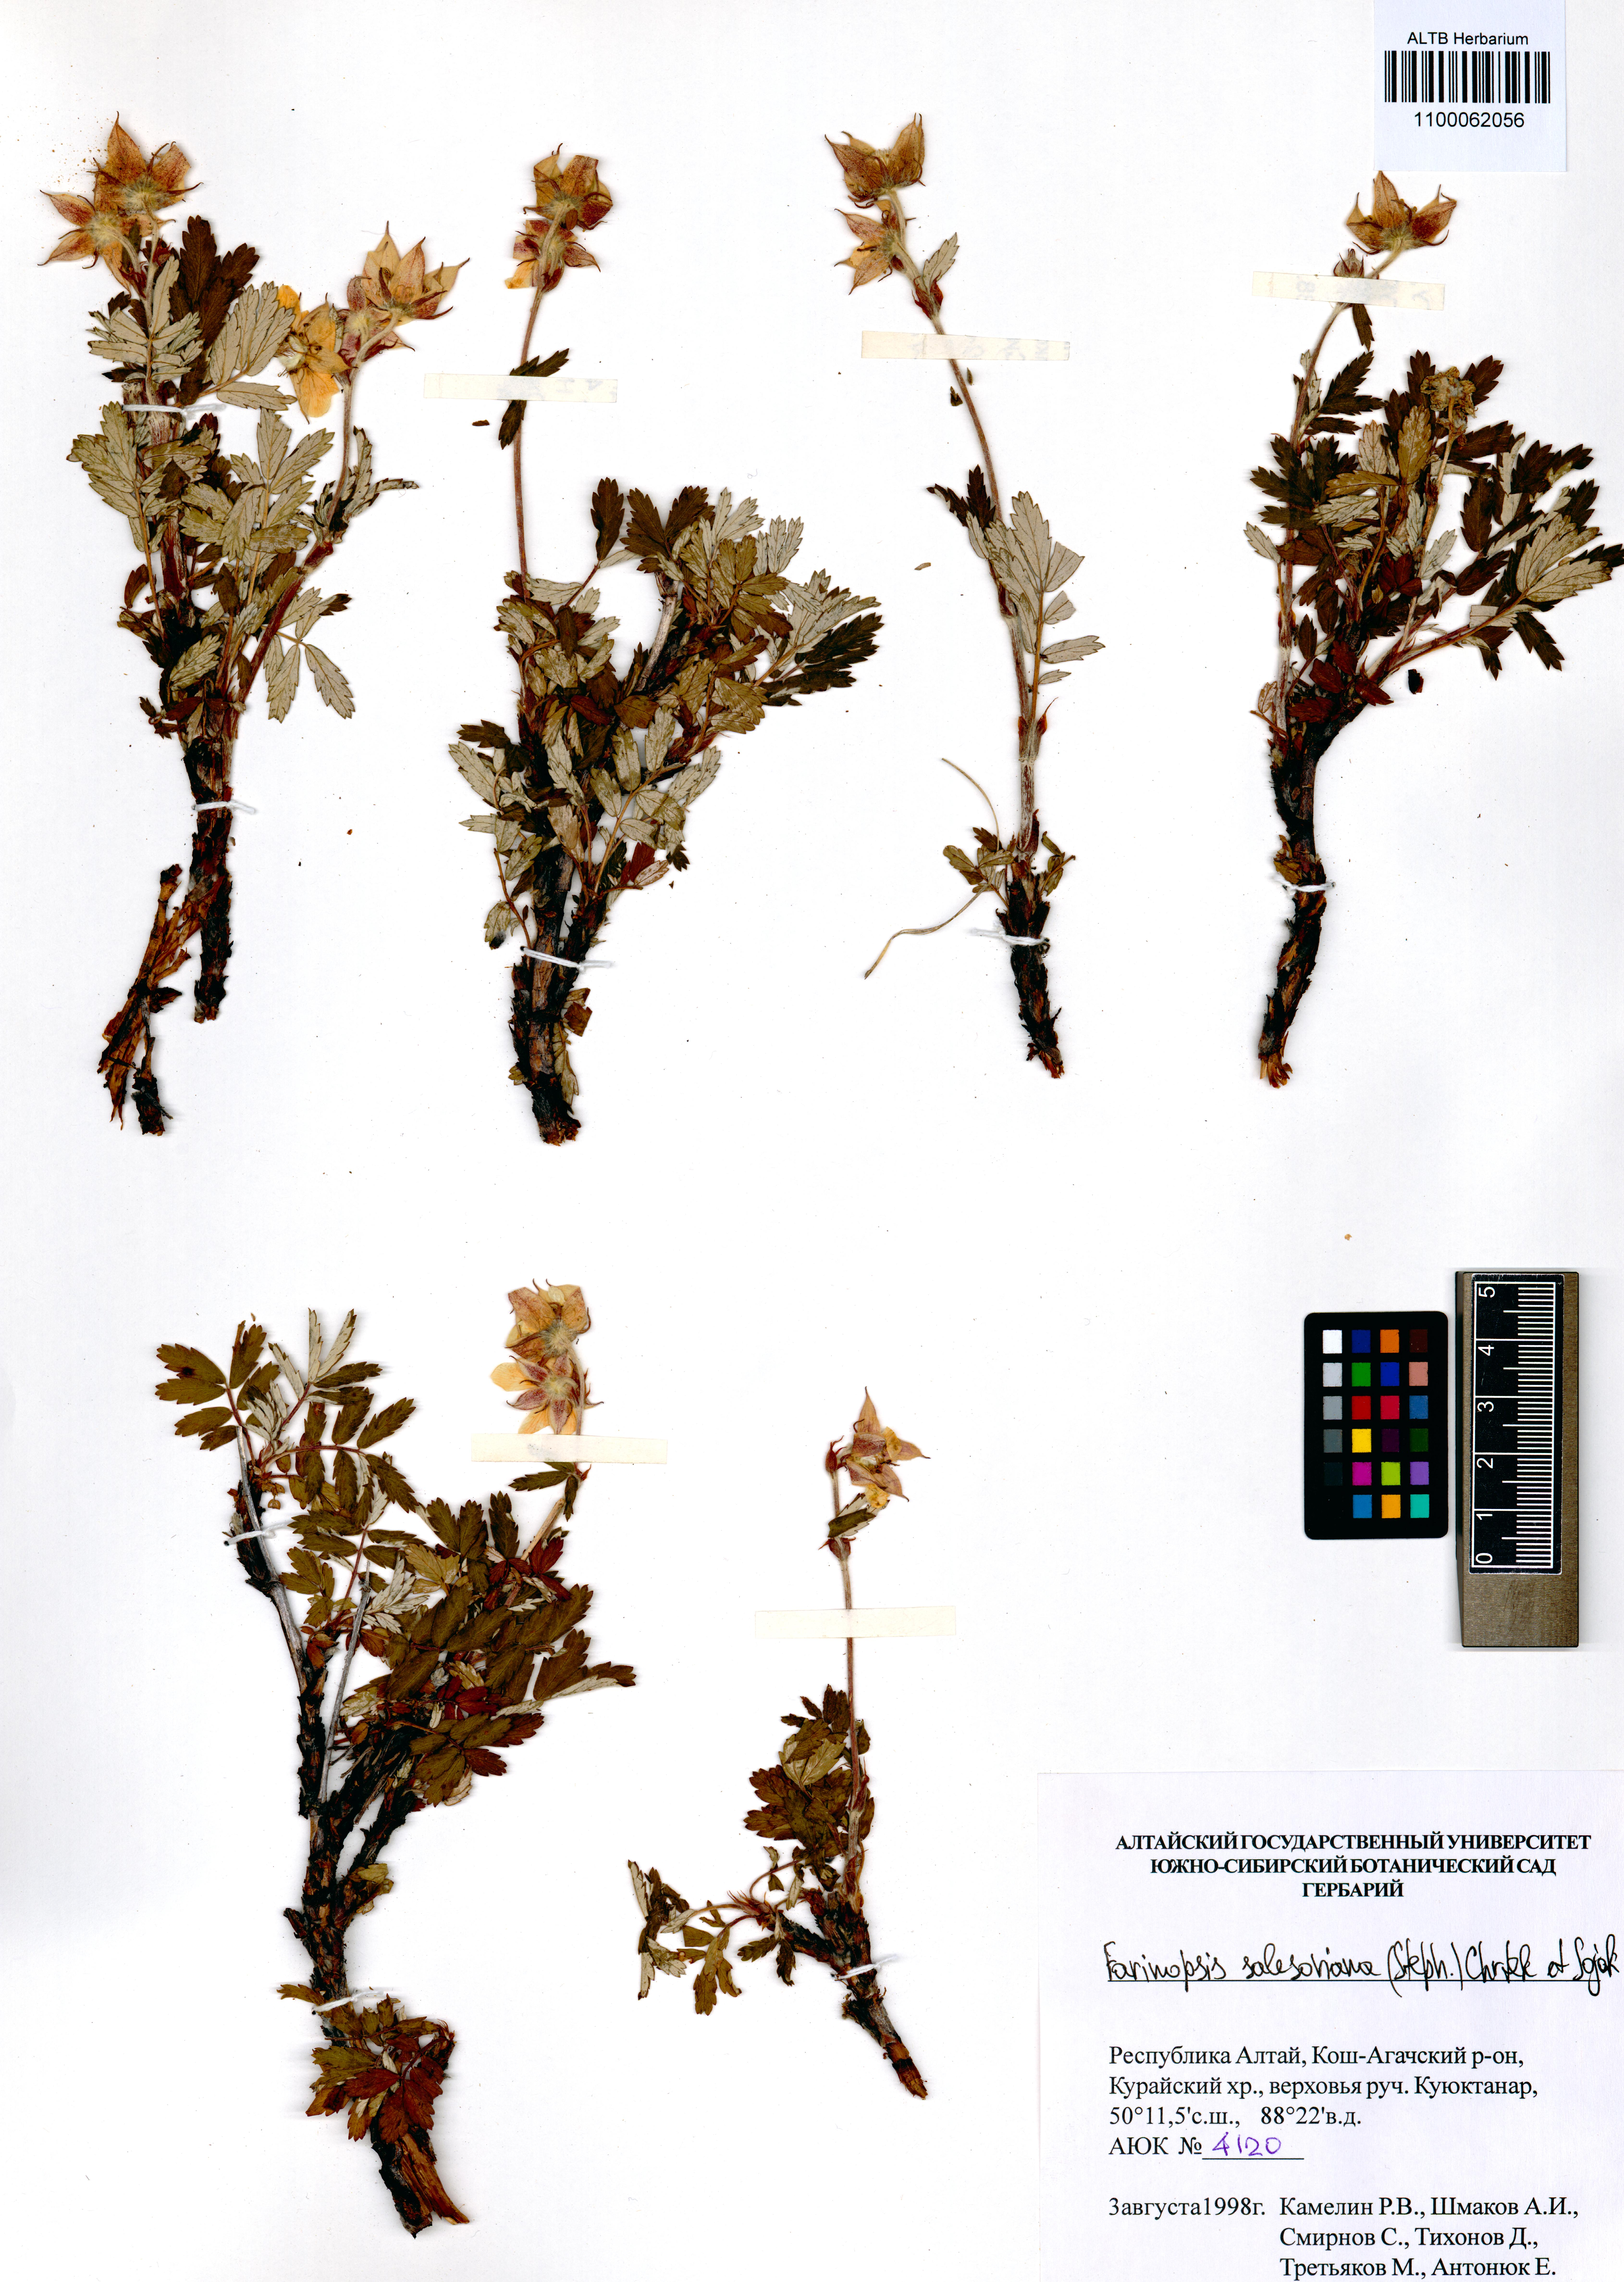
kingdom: Plantae
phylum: Tracheophyta
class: Magnoliopsida
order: Rosales
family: Rosaceae
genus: Farinopsis
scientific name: Farinopsis salesoviana
